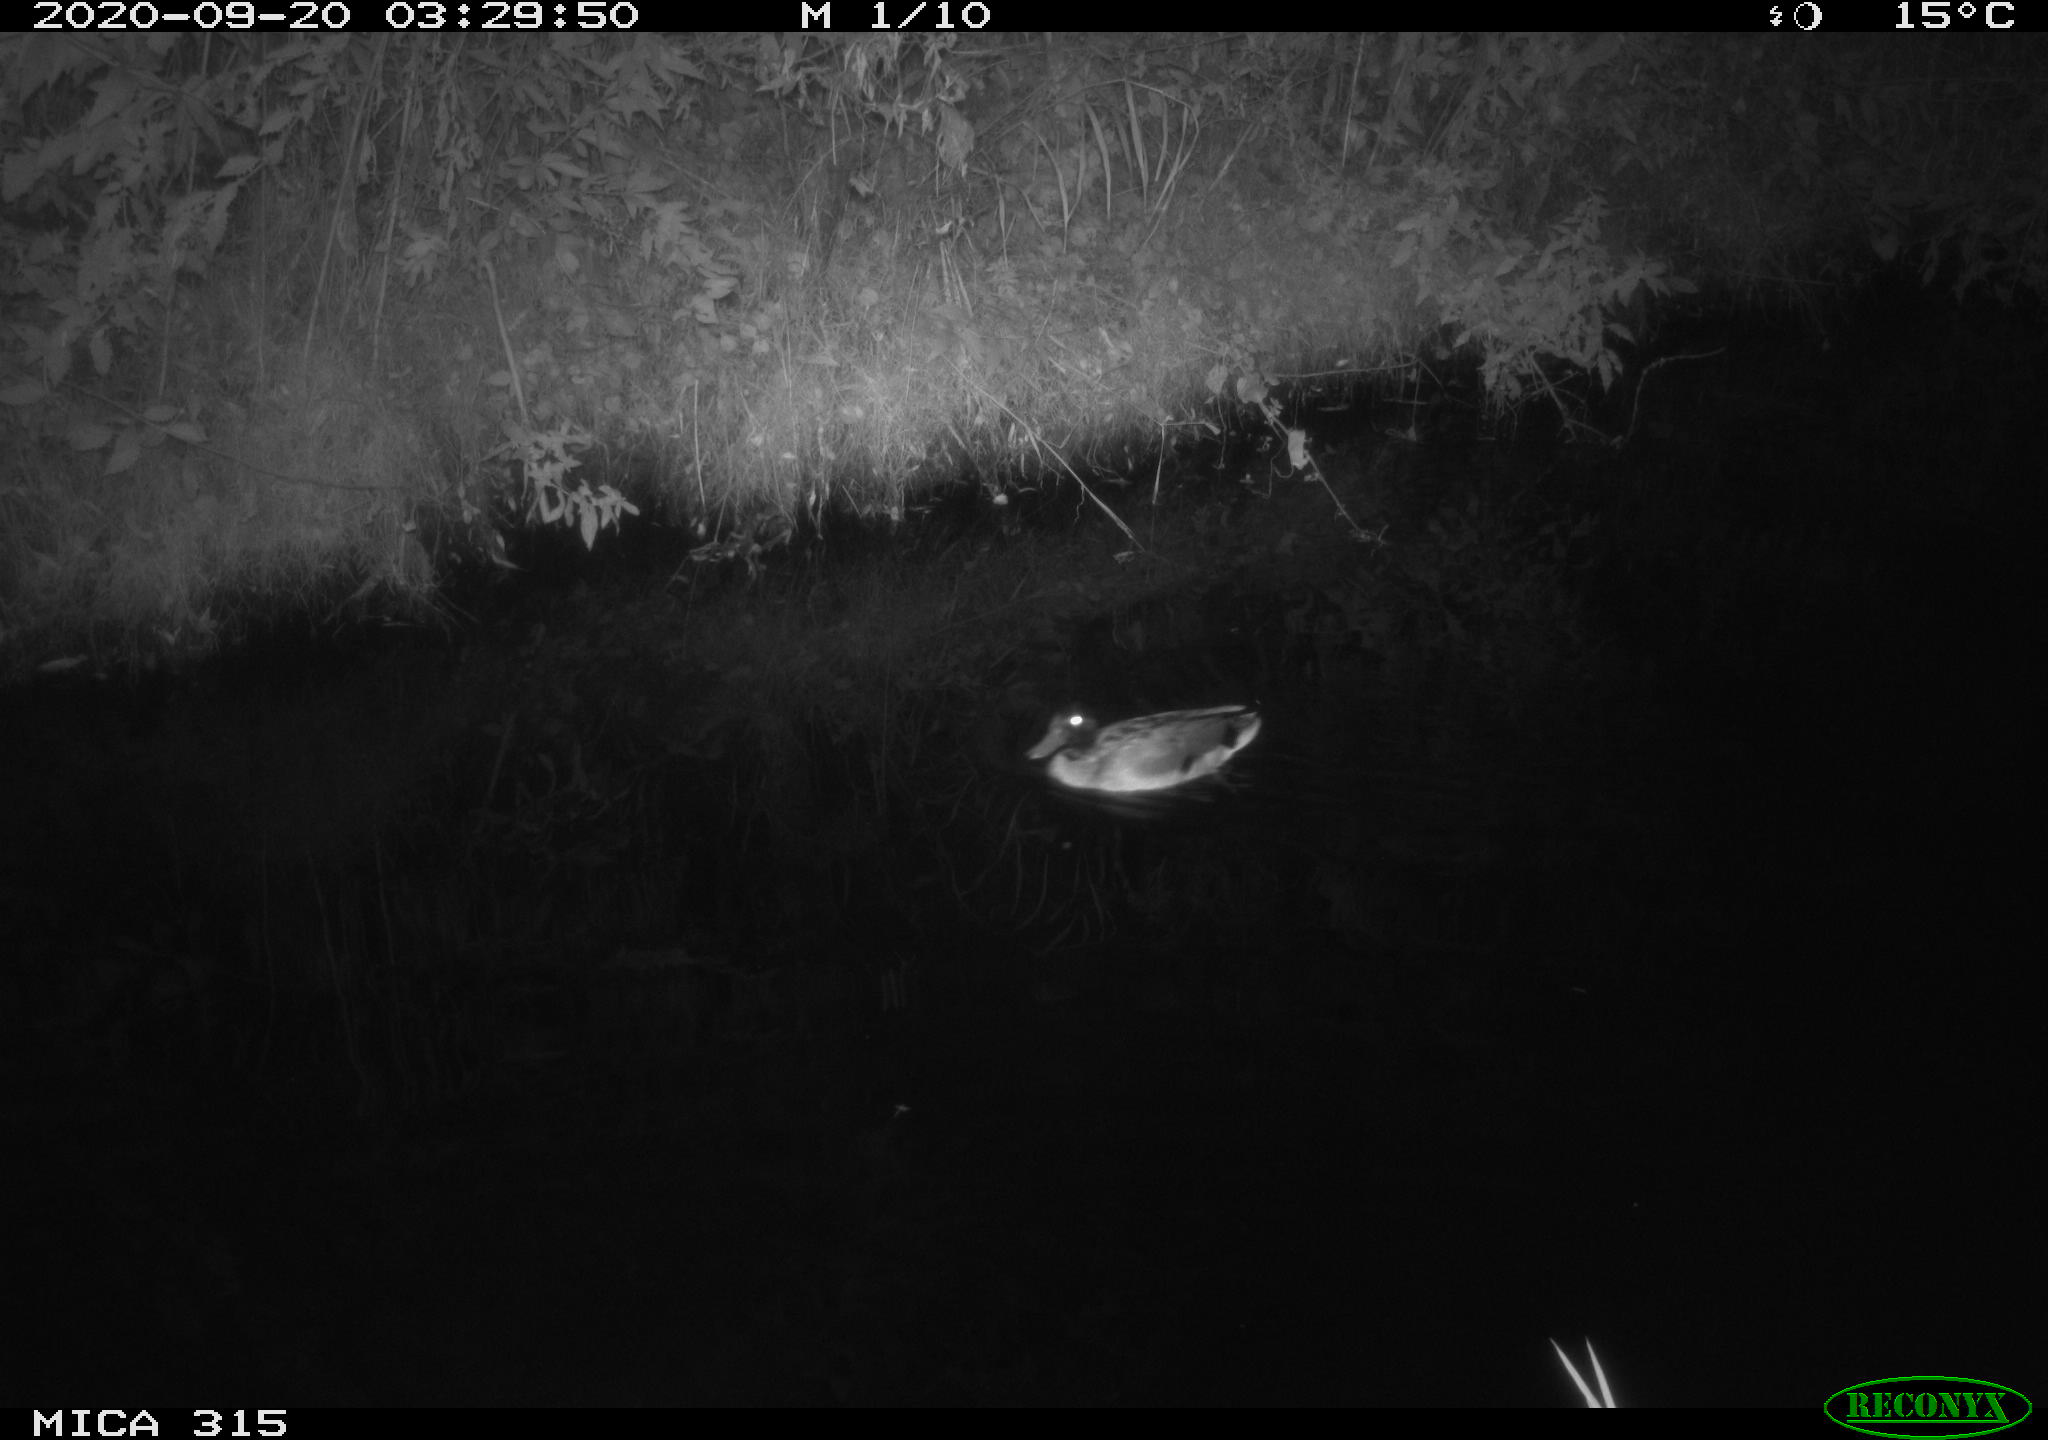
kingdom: Animalia
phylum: Chordata
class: Aves
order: Anseriformes
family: Anatidae
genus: Anas
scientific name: Anas platyrhynchos
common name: Mallard
